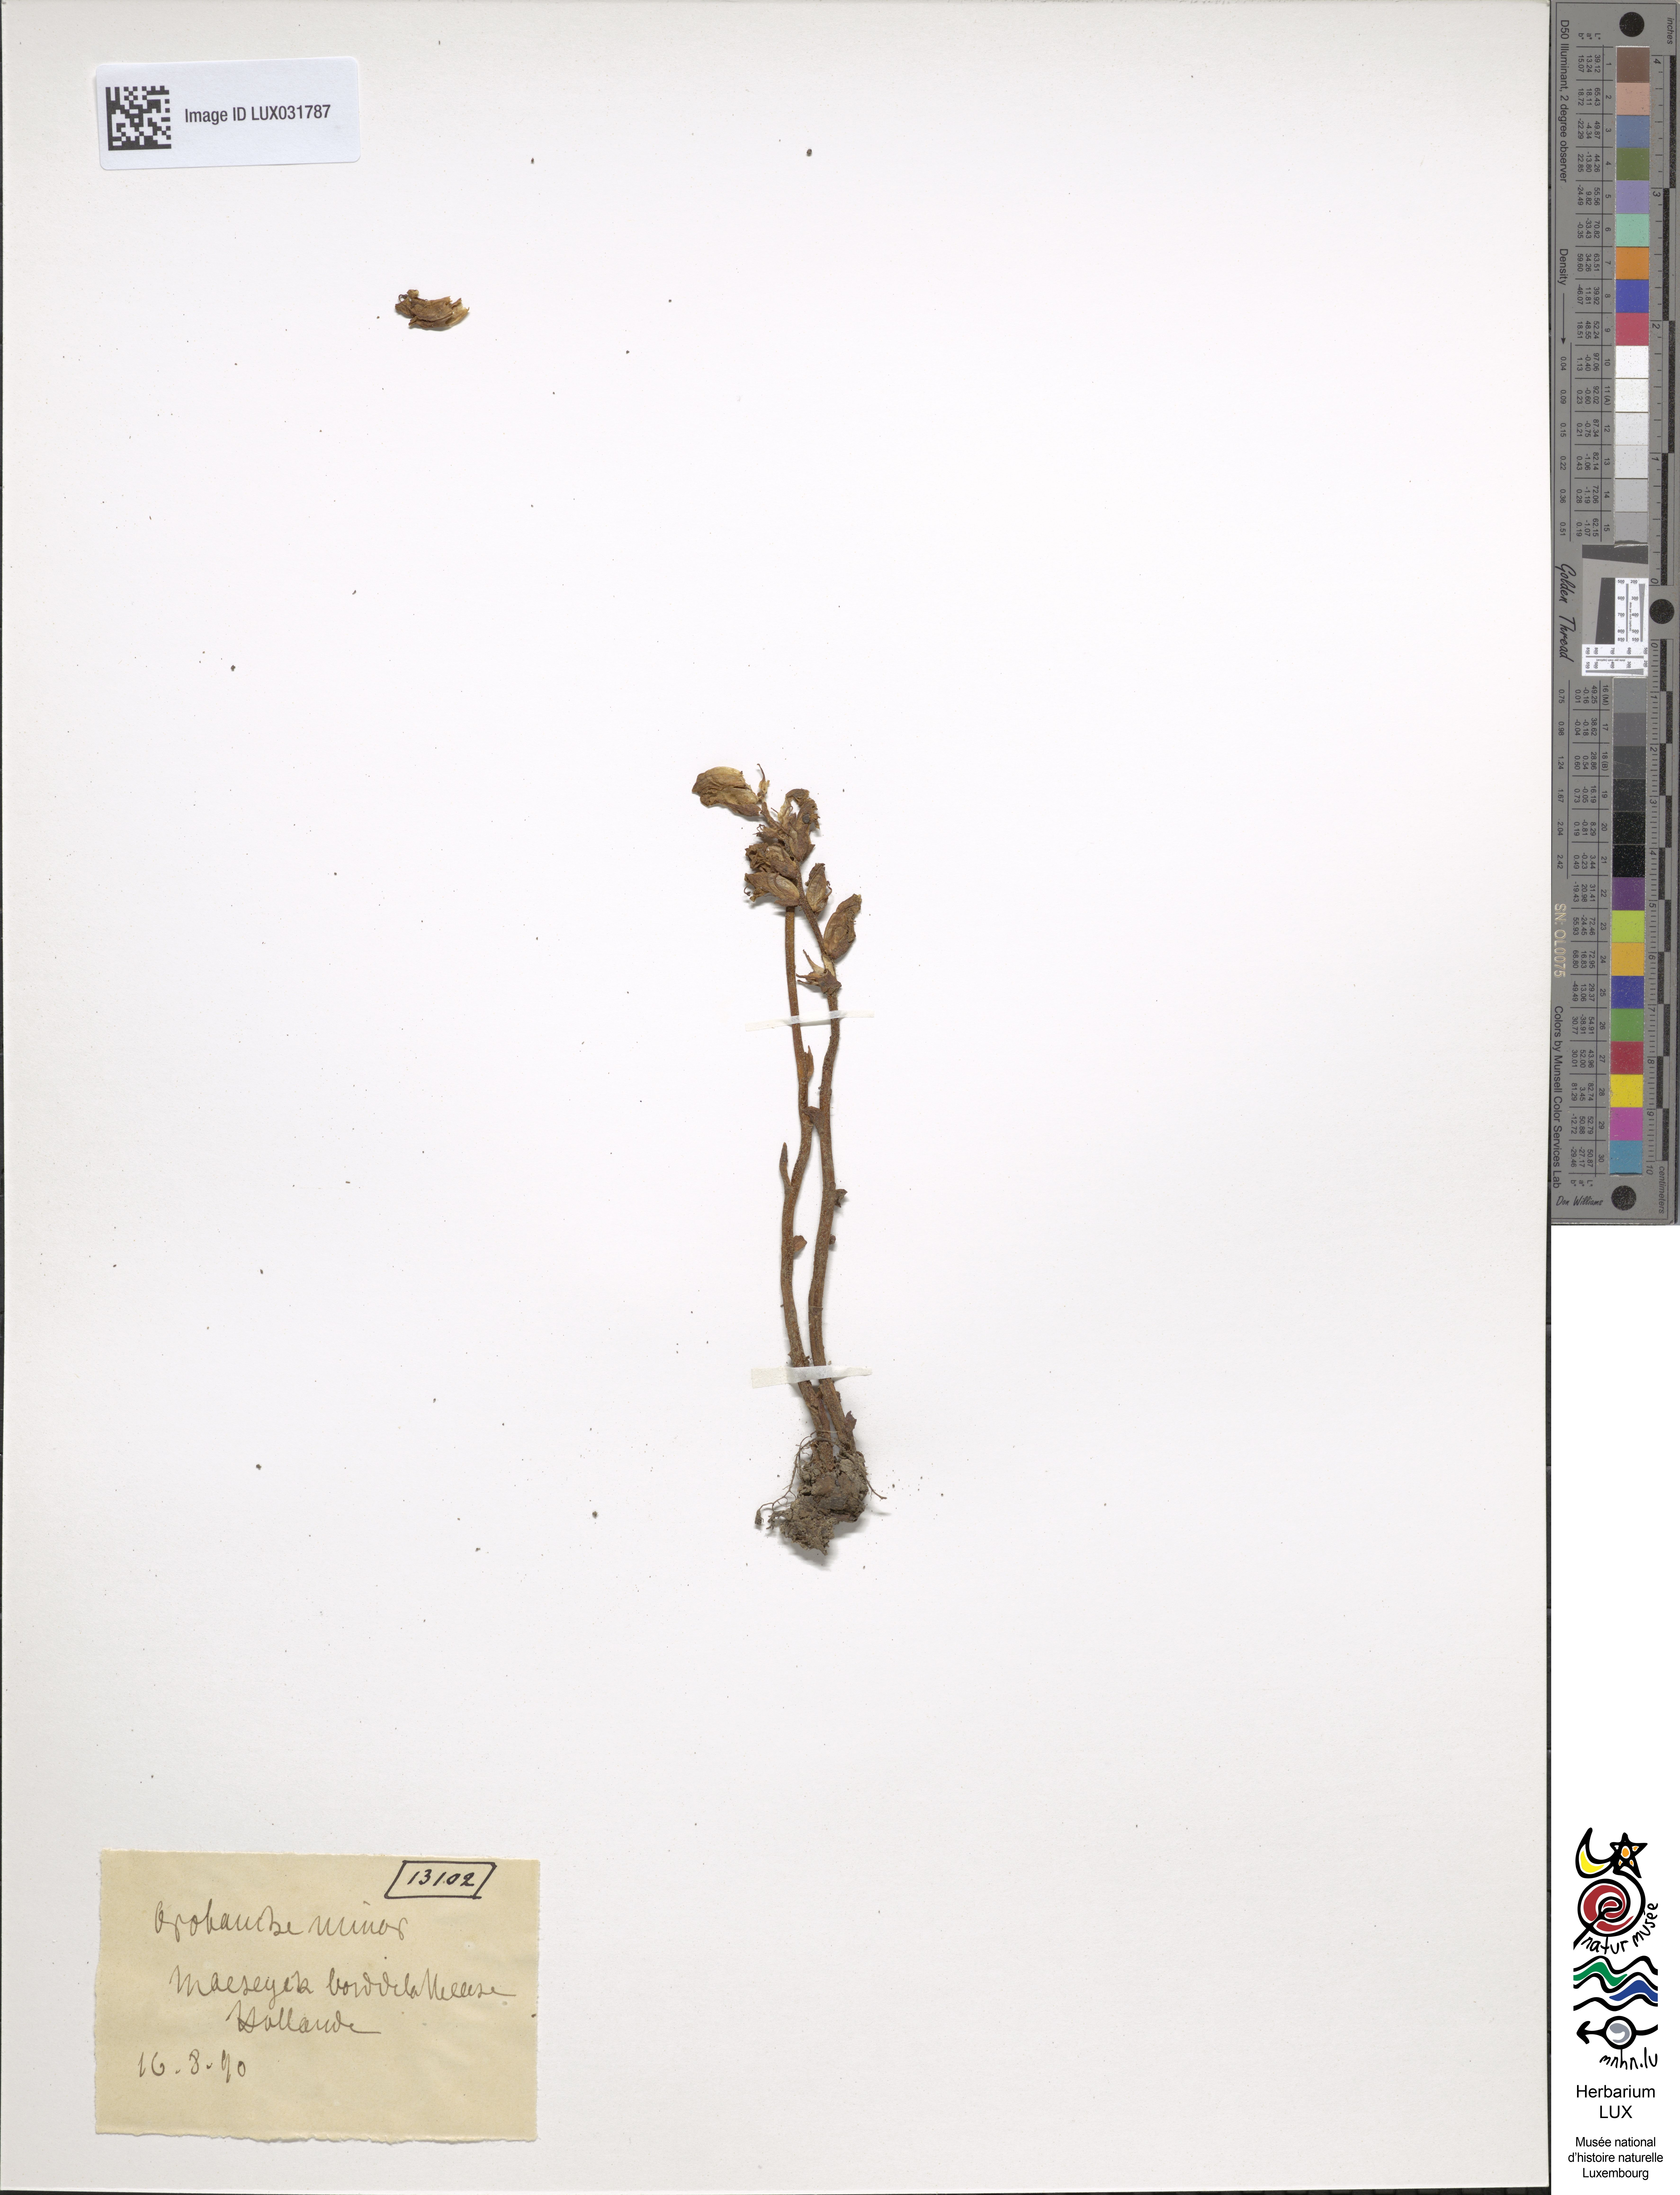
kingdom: Plantae
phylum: Tracheophyta
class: Magnoliopsida
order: Lamiales
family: Orobanchaceae
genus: Orobanche
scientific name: Orobanche minor
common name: Common broomrape
